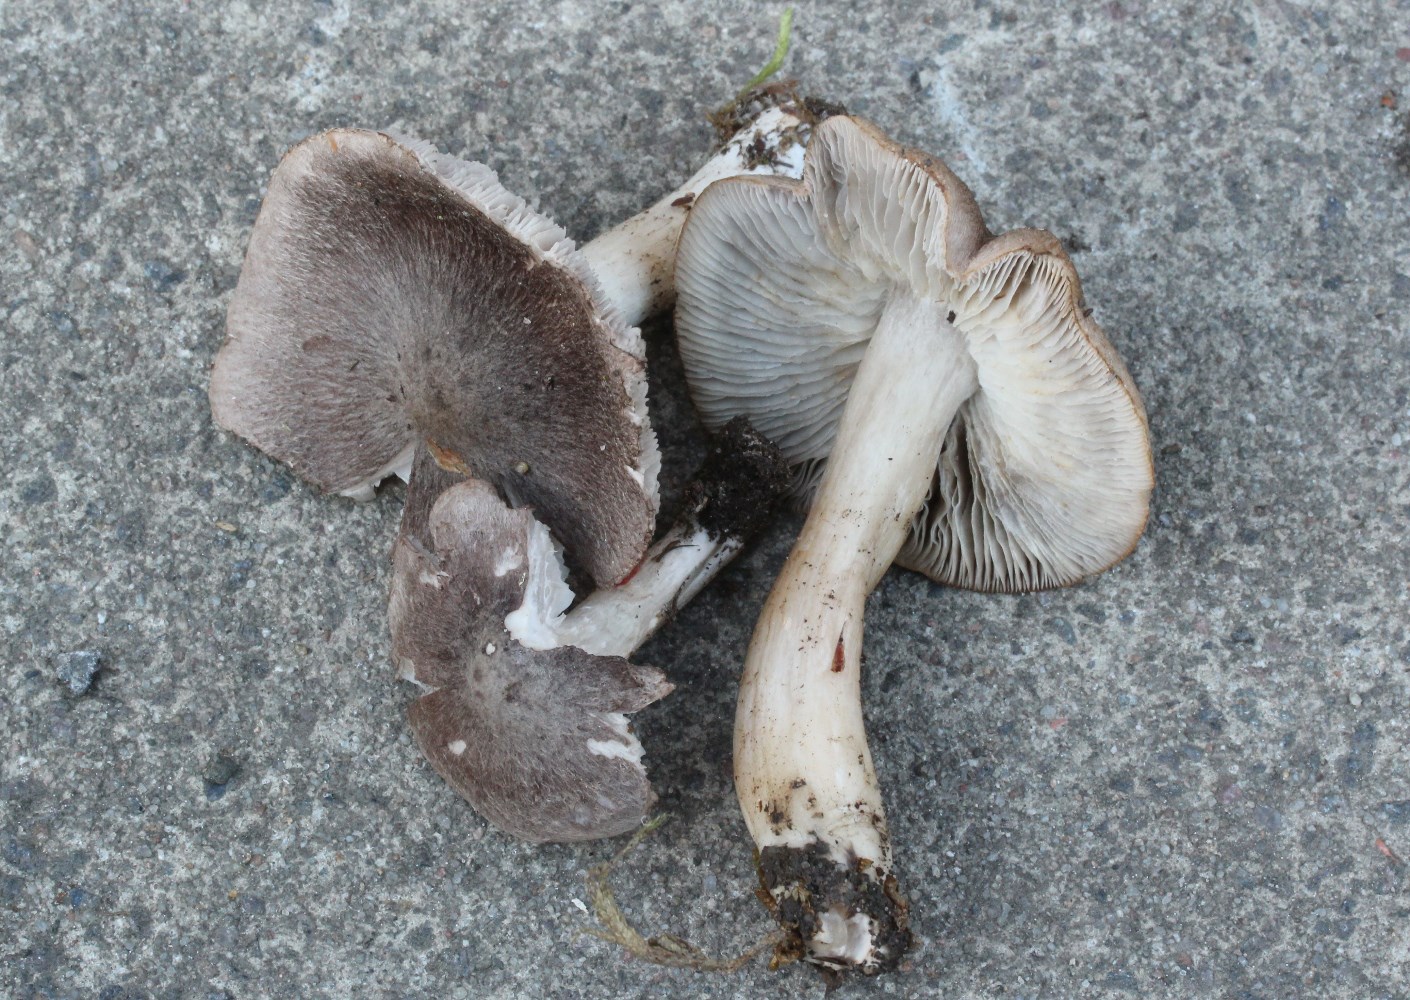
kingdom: Fungi
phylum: Basidiomycota
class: Agaricomycetes
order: Agaricales
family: Tricholomataceae
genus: Tricholoma
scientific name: Tricholoma terreum
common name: jordfarvet ridderhat
